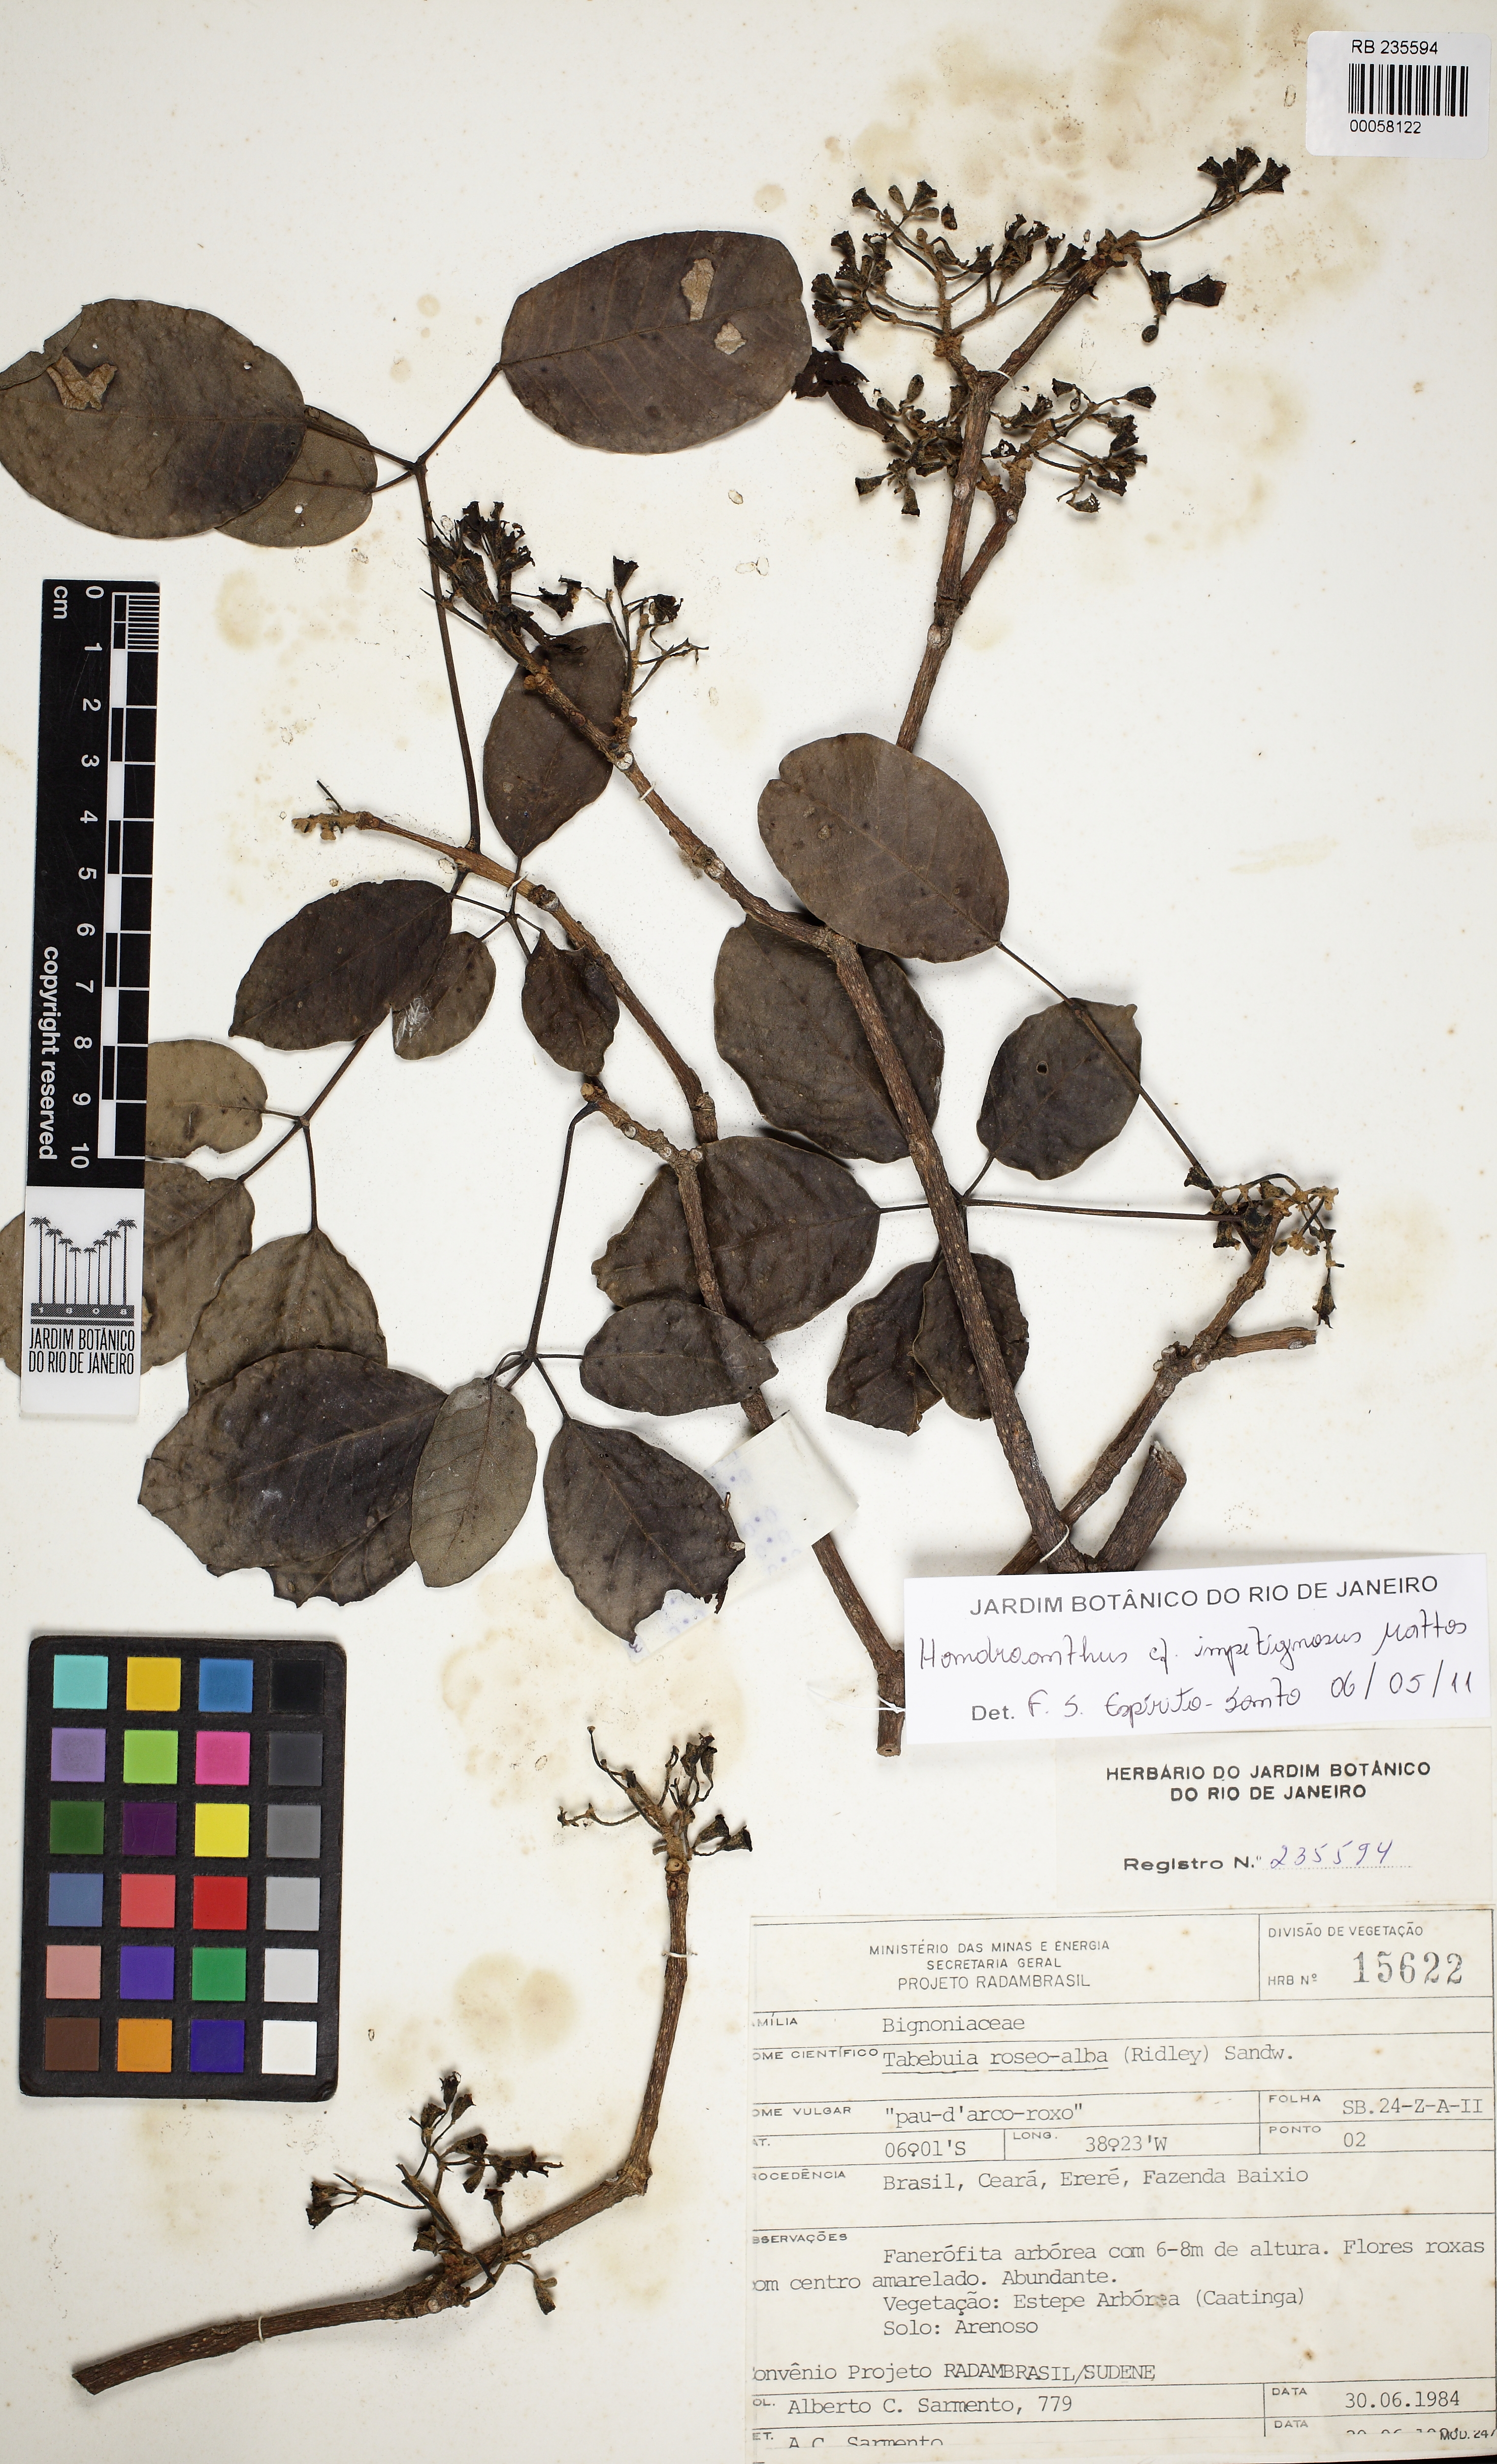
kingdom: Plantae
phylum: Tracheophyta
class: Magnoliopsida
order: Lamiales
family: Bignoniaceae
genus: Handroanthus
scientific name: Handroanthus impetiginosum
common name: Pink trumpet tree
